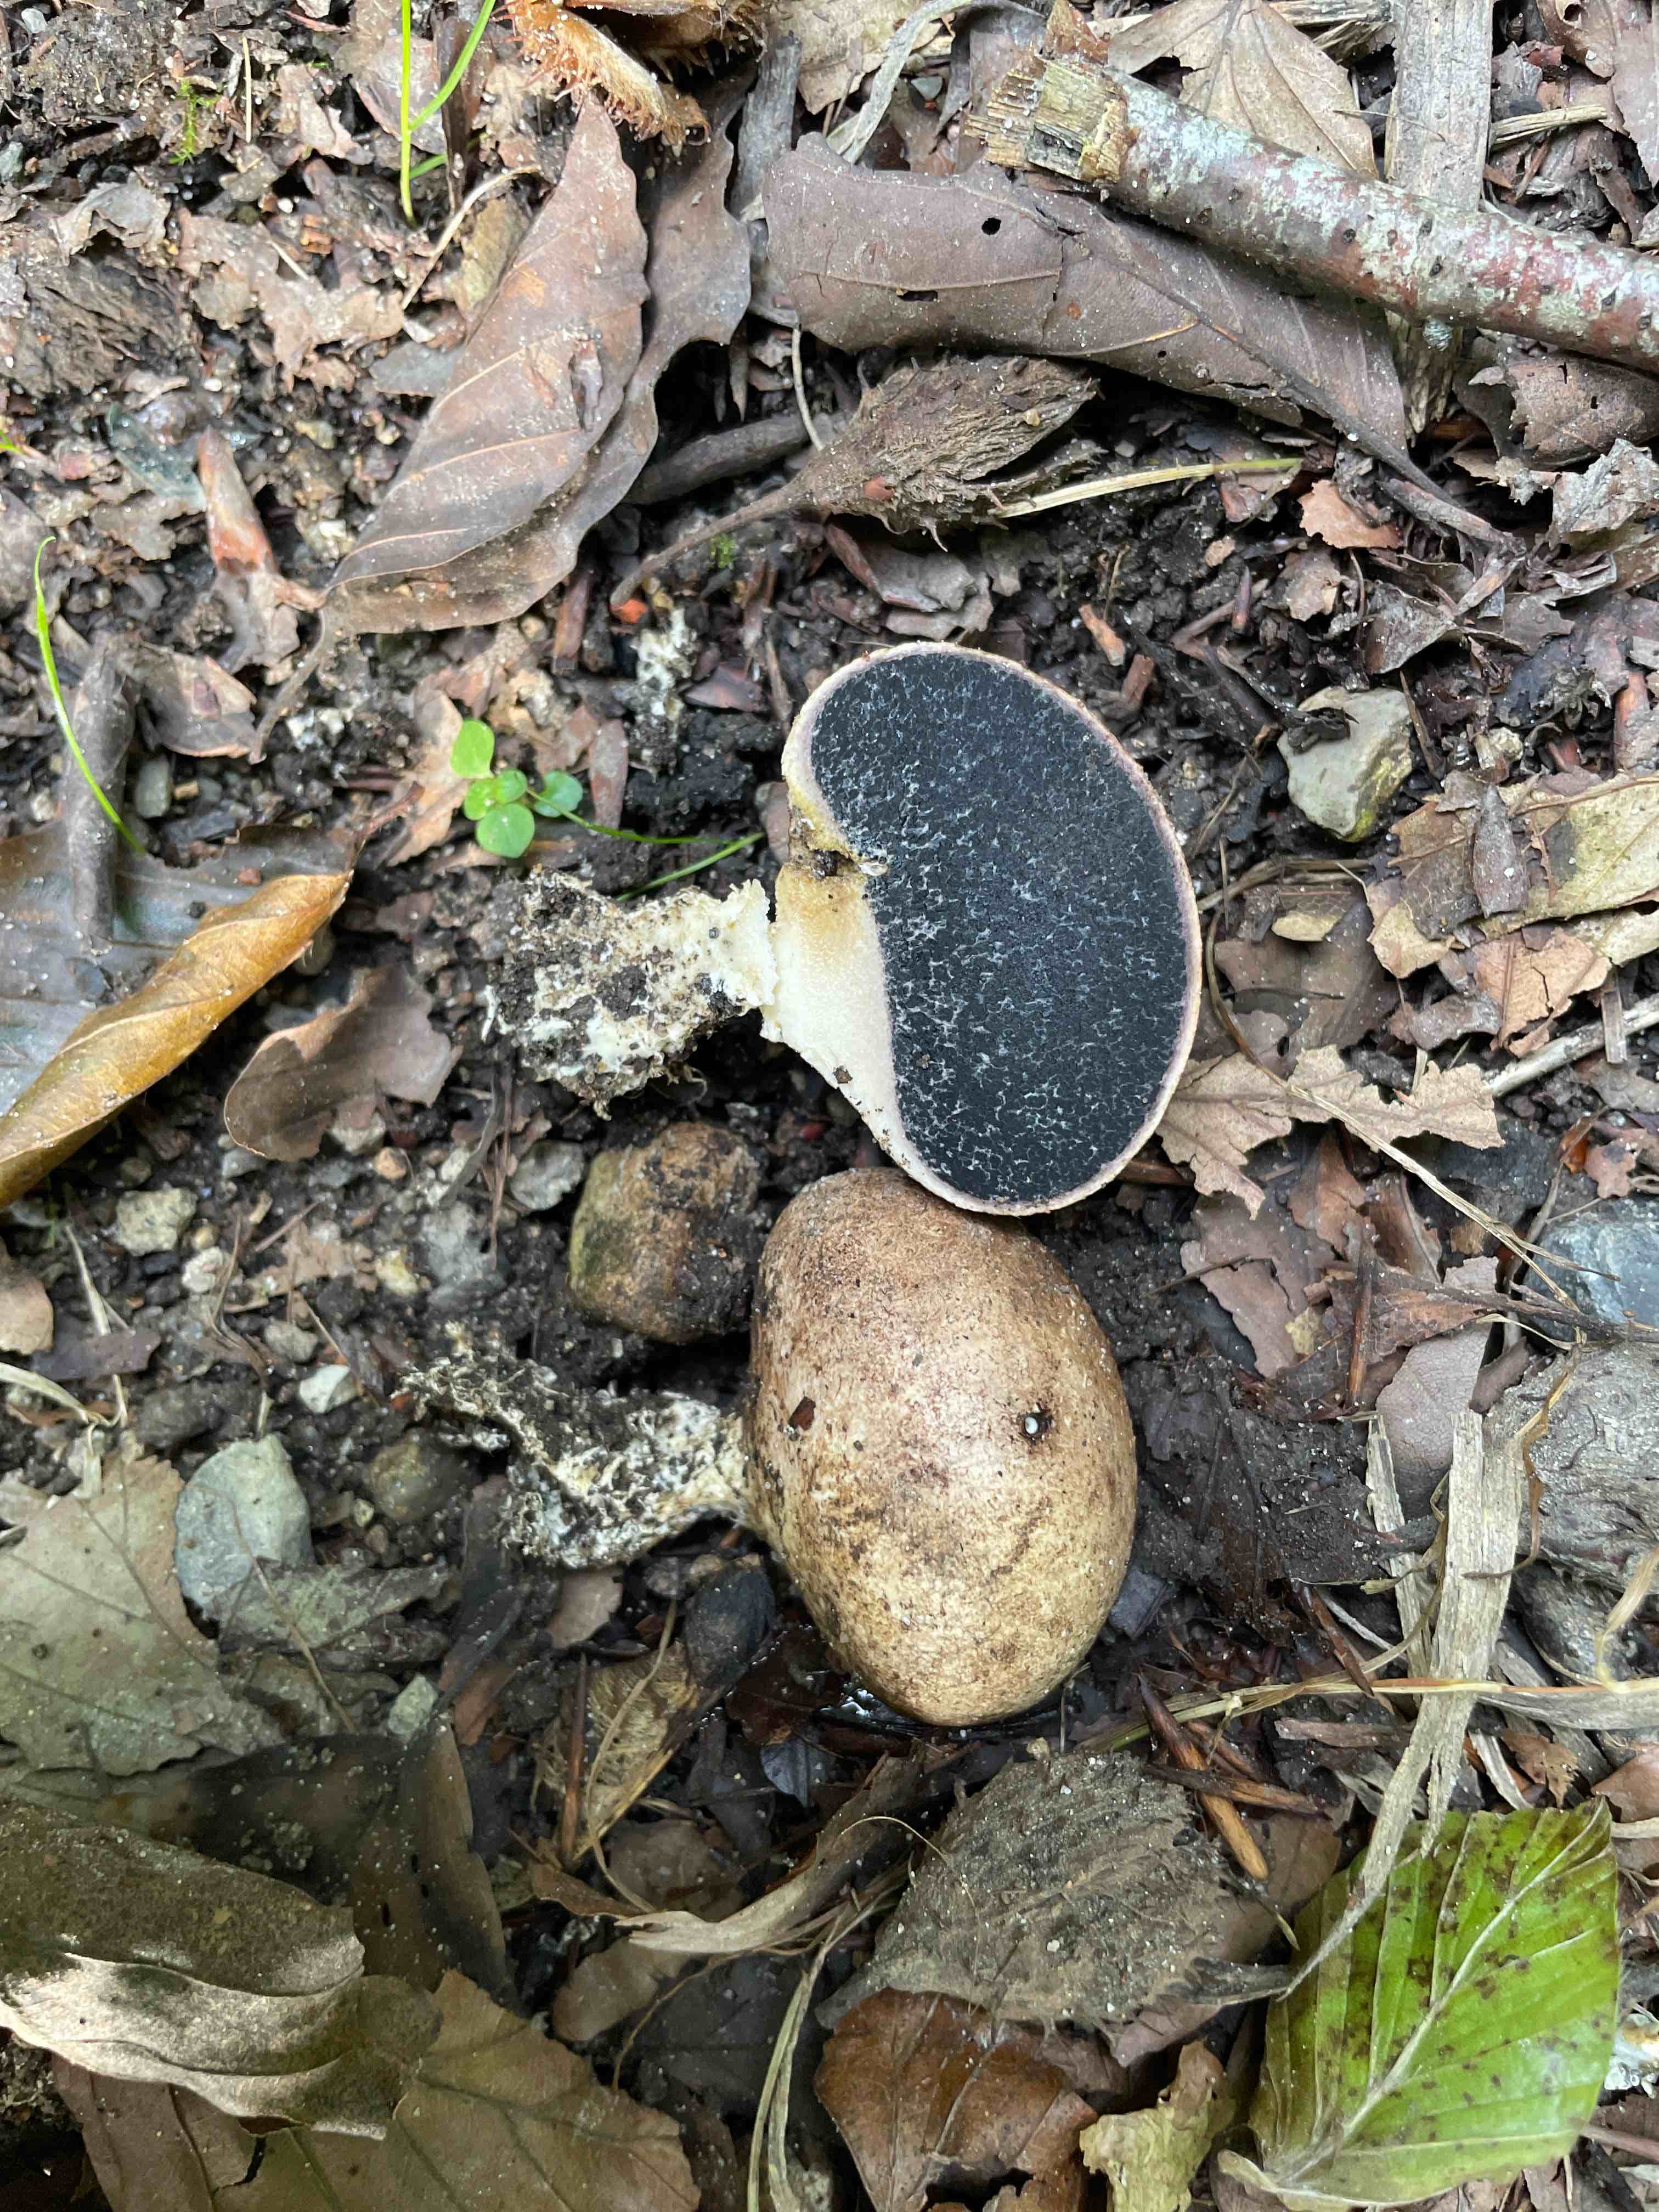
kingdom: Fungi
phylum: Basidiomycota
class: Agaricomycetes
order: Boletales
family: Sclerodermataceae
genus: Scleroderma
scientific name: Scleroderma
